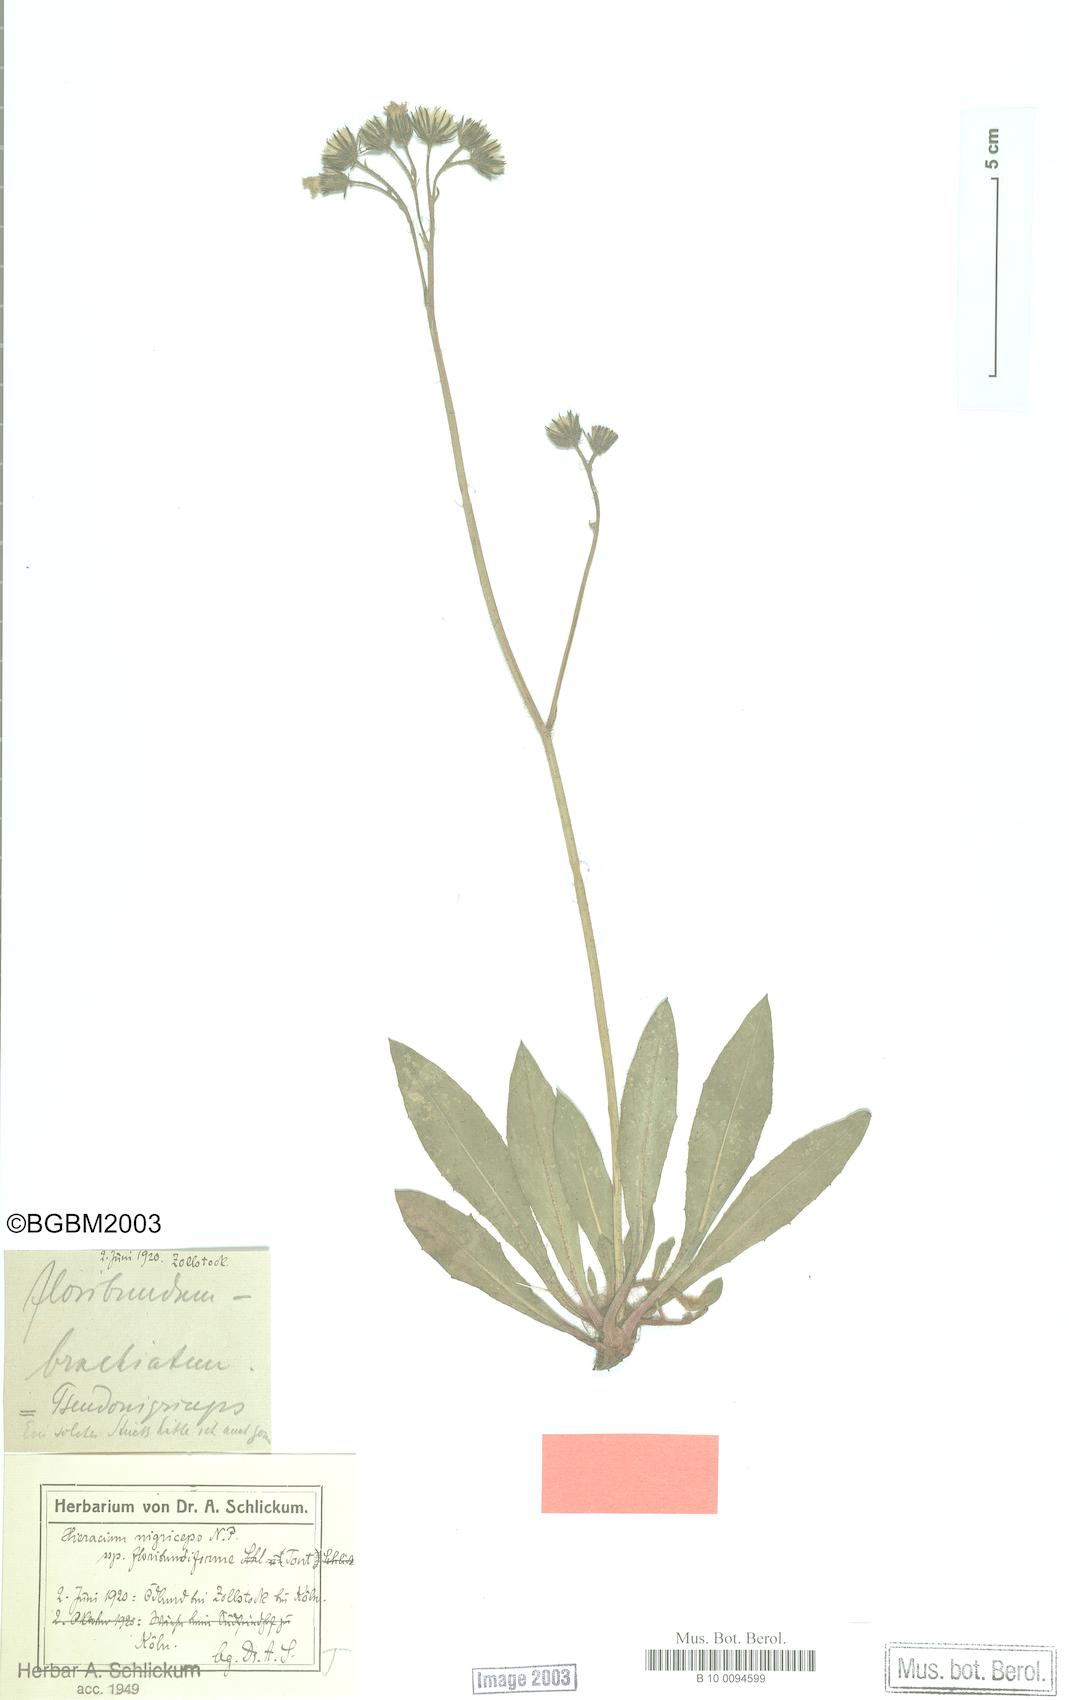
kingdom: Plantae
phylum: Tracheophyta
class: Magnoliopsida
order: Asterales
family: Asteraceae
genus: Hieracium
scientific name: Hieracium
